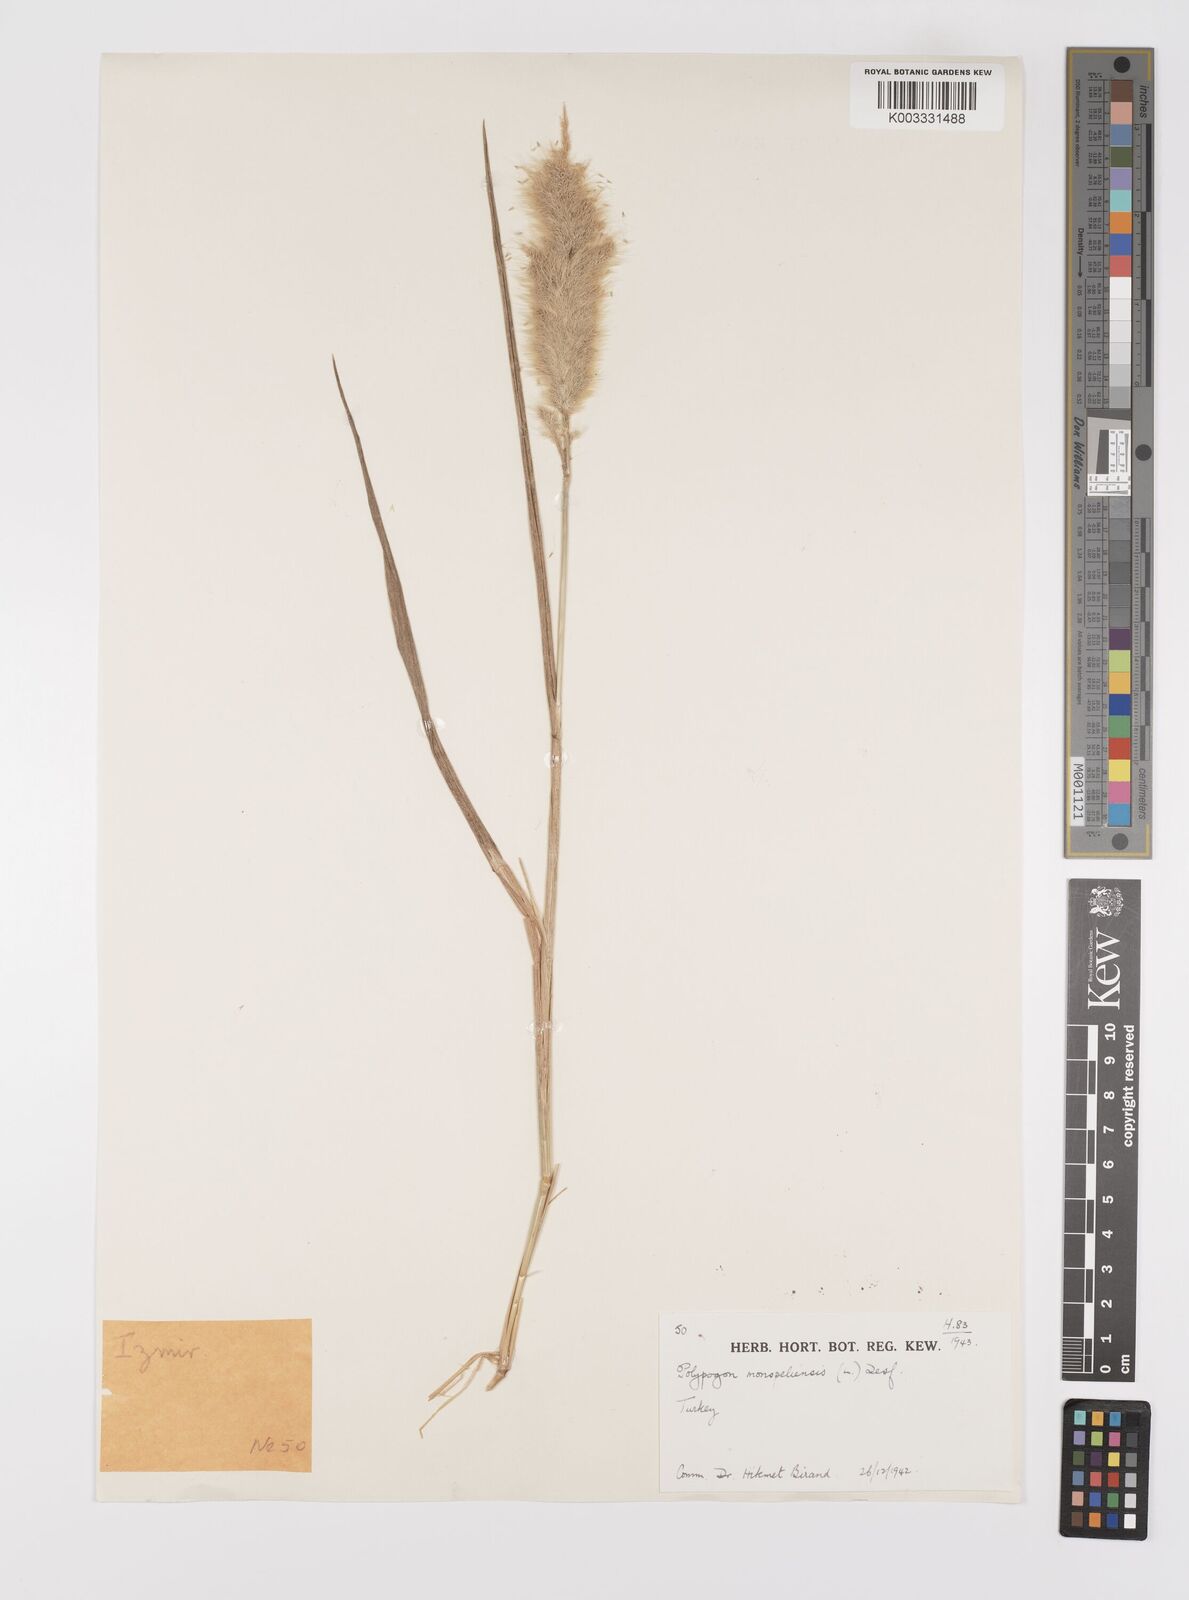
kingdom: Plantae
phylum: Tracheophyta
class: Liliopsida
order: Poales
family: Poaceae
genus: Polypogon
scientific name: Polypogon monspeliensis
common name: Annual rabbitsfoot grass
